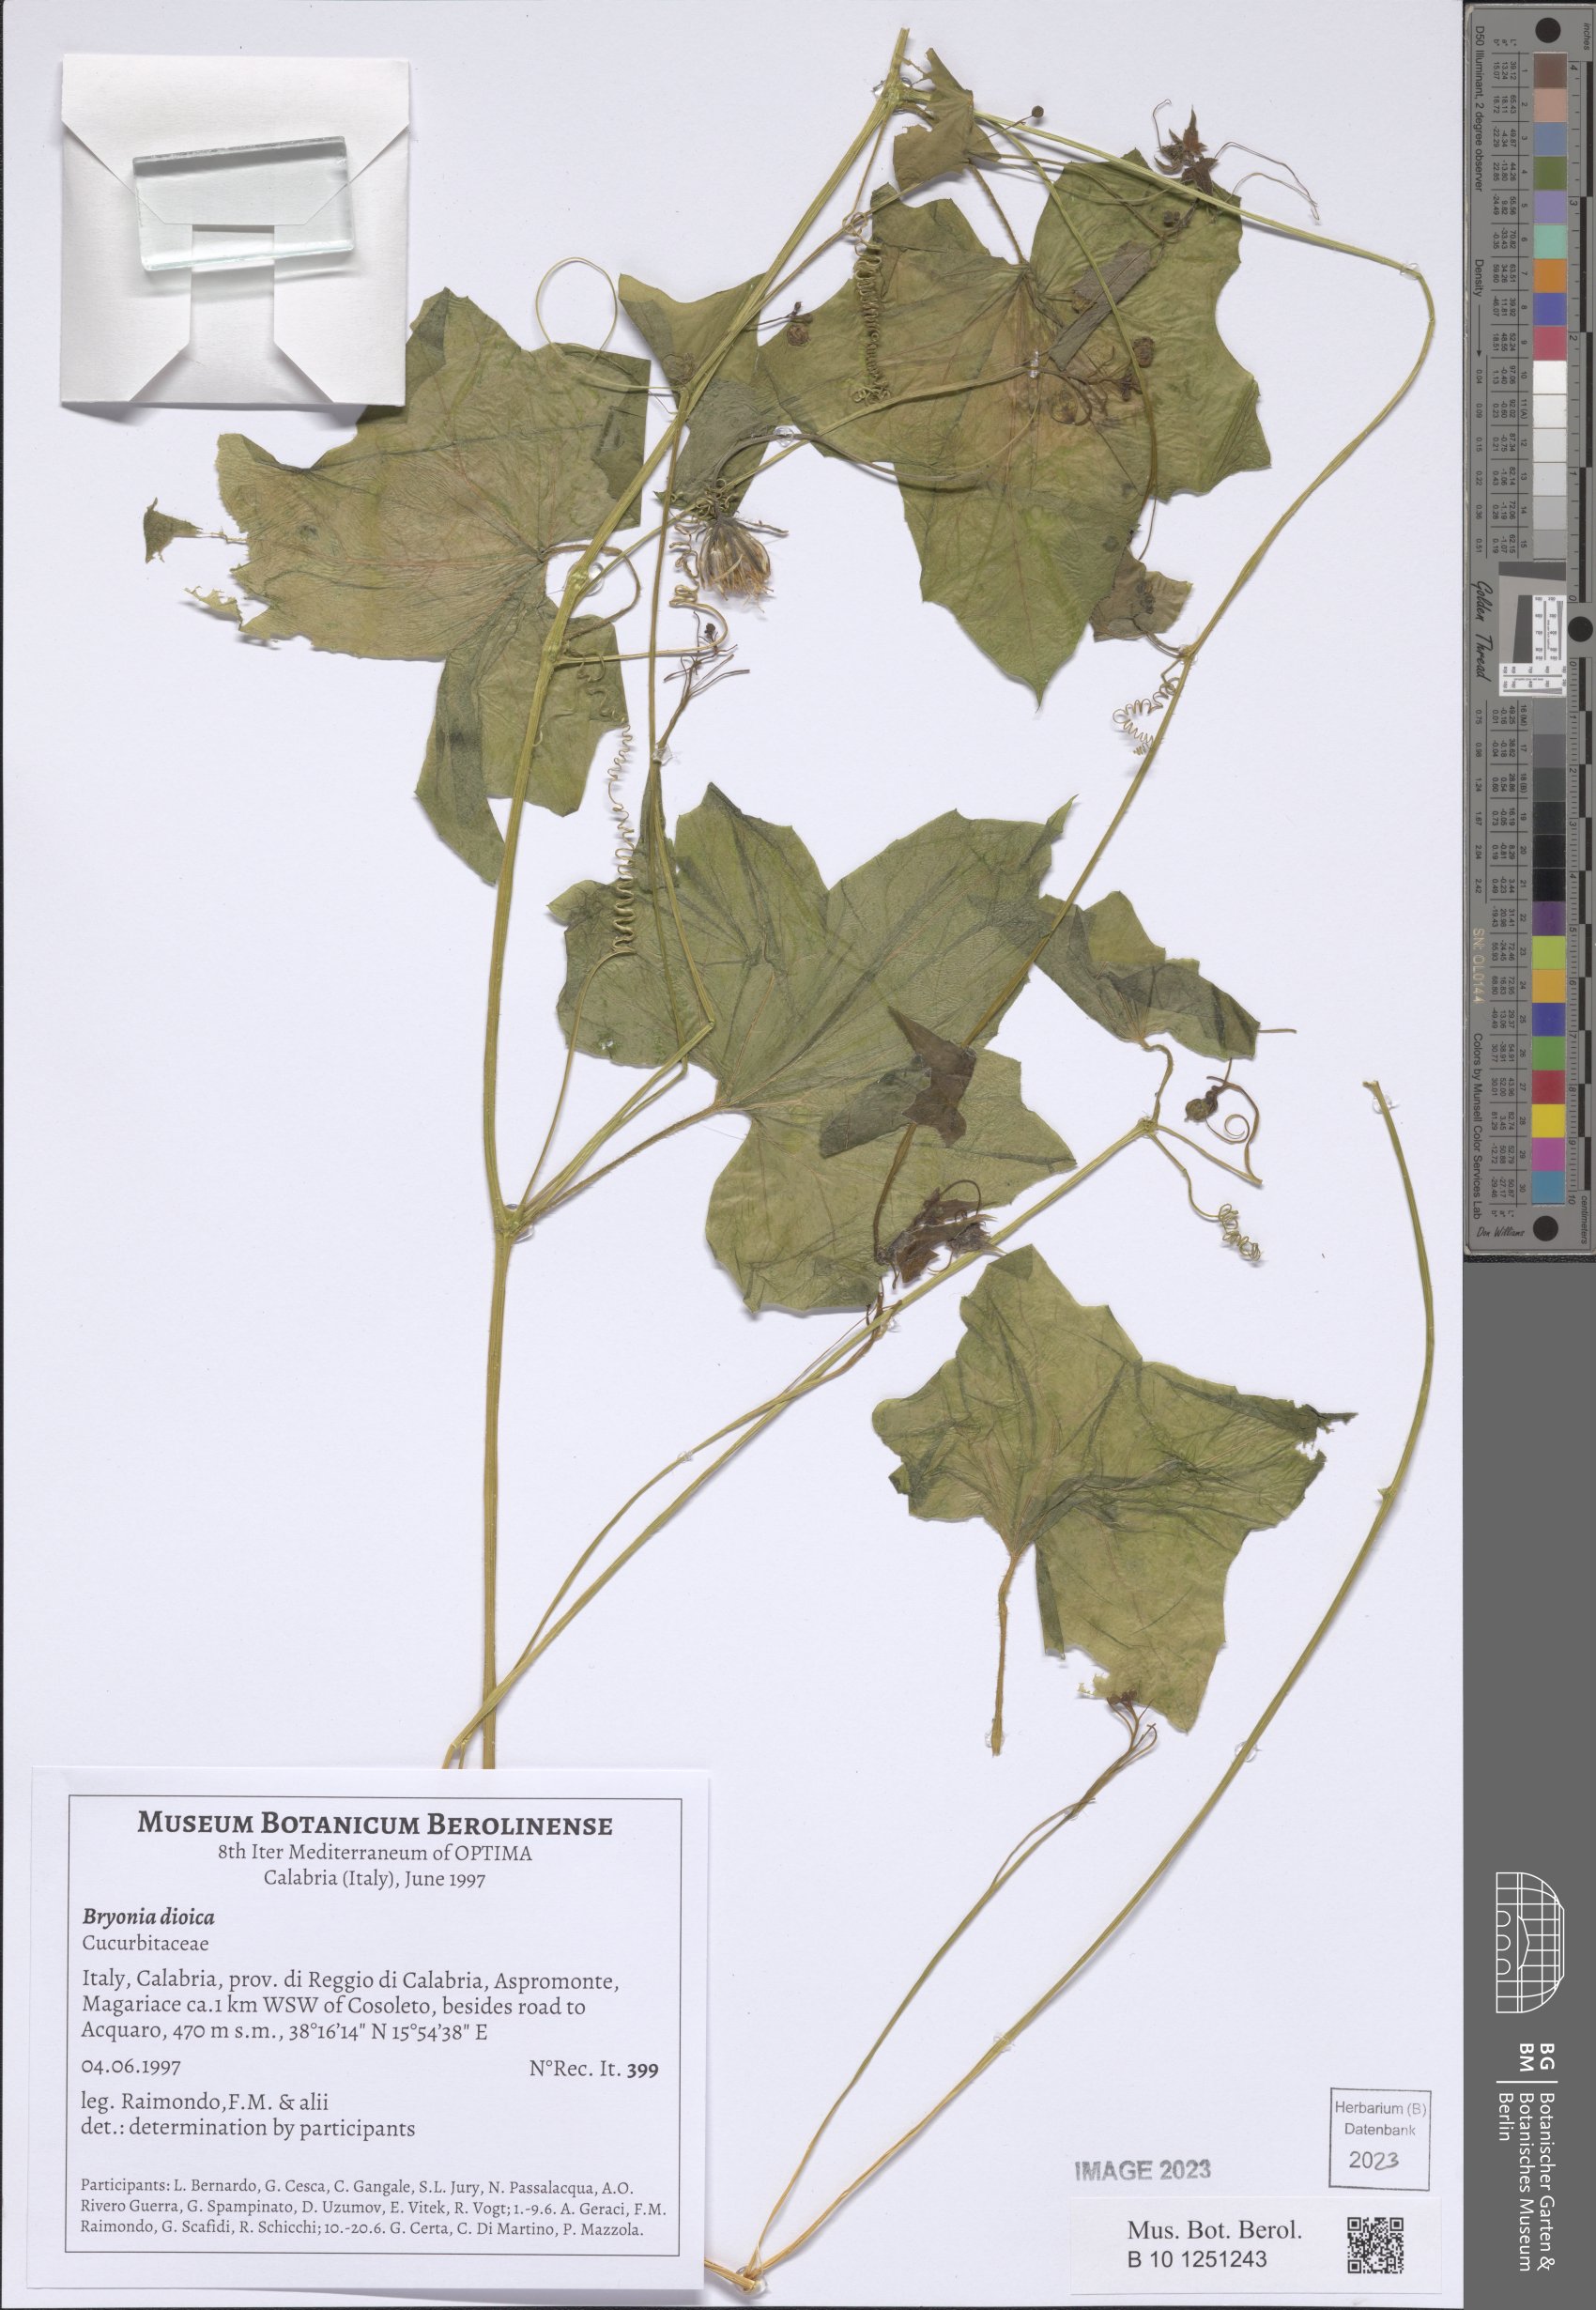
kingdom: Plantae
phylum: Tracheophyta
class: Magnoliopsida
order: Cucurbitales
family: Cucurbitaceae
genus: Bryonia
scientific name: Bryonia dioica
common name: White bryony
